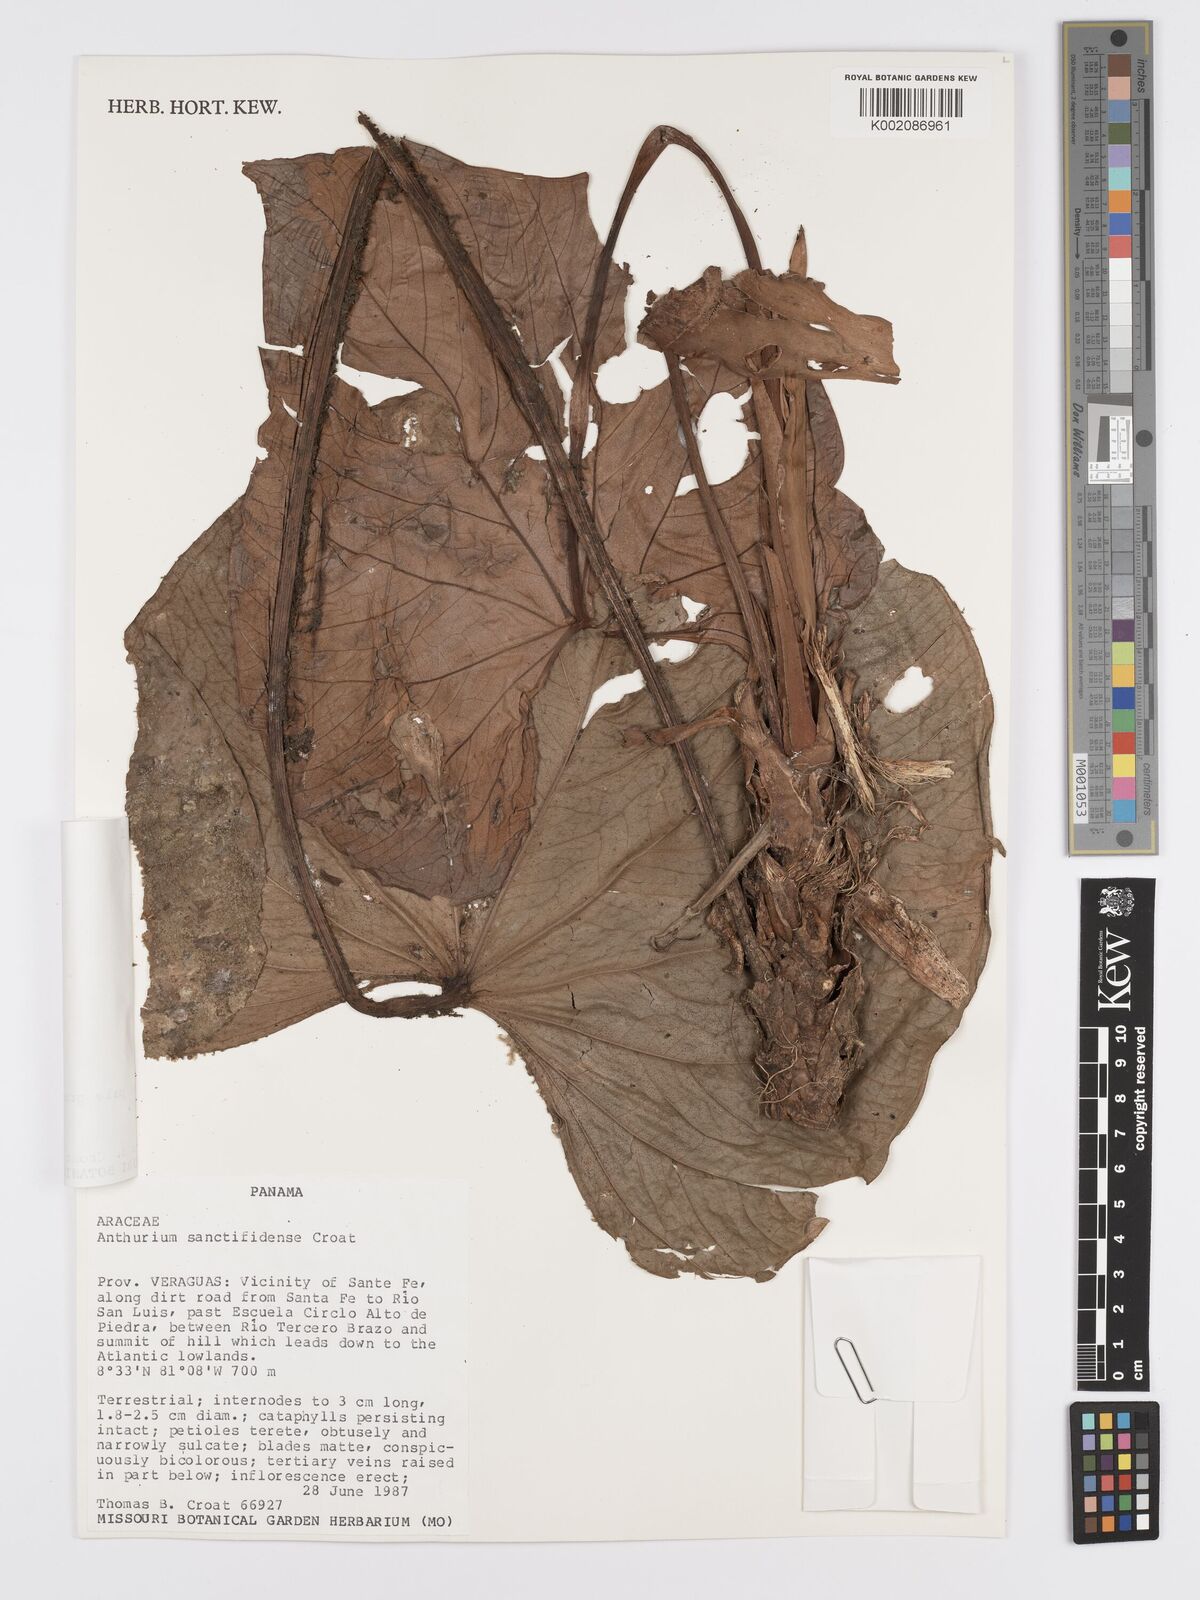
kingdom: Plantae
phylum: Tracheophyta
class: Liliopsida
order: Alismatales
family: Araceae
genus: Anthurium
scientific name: Anthurium sanctifidense
